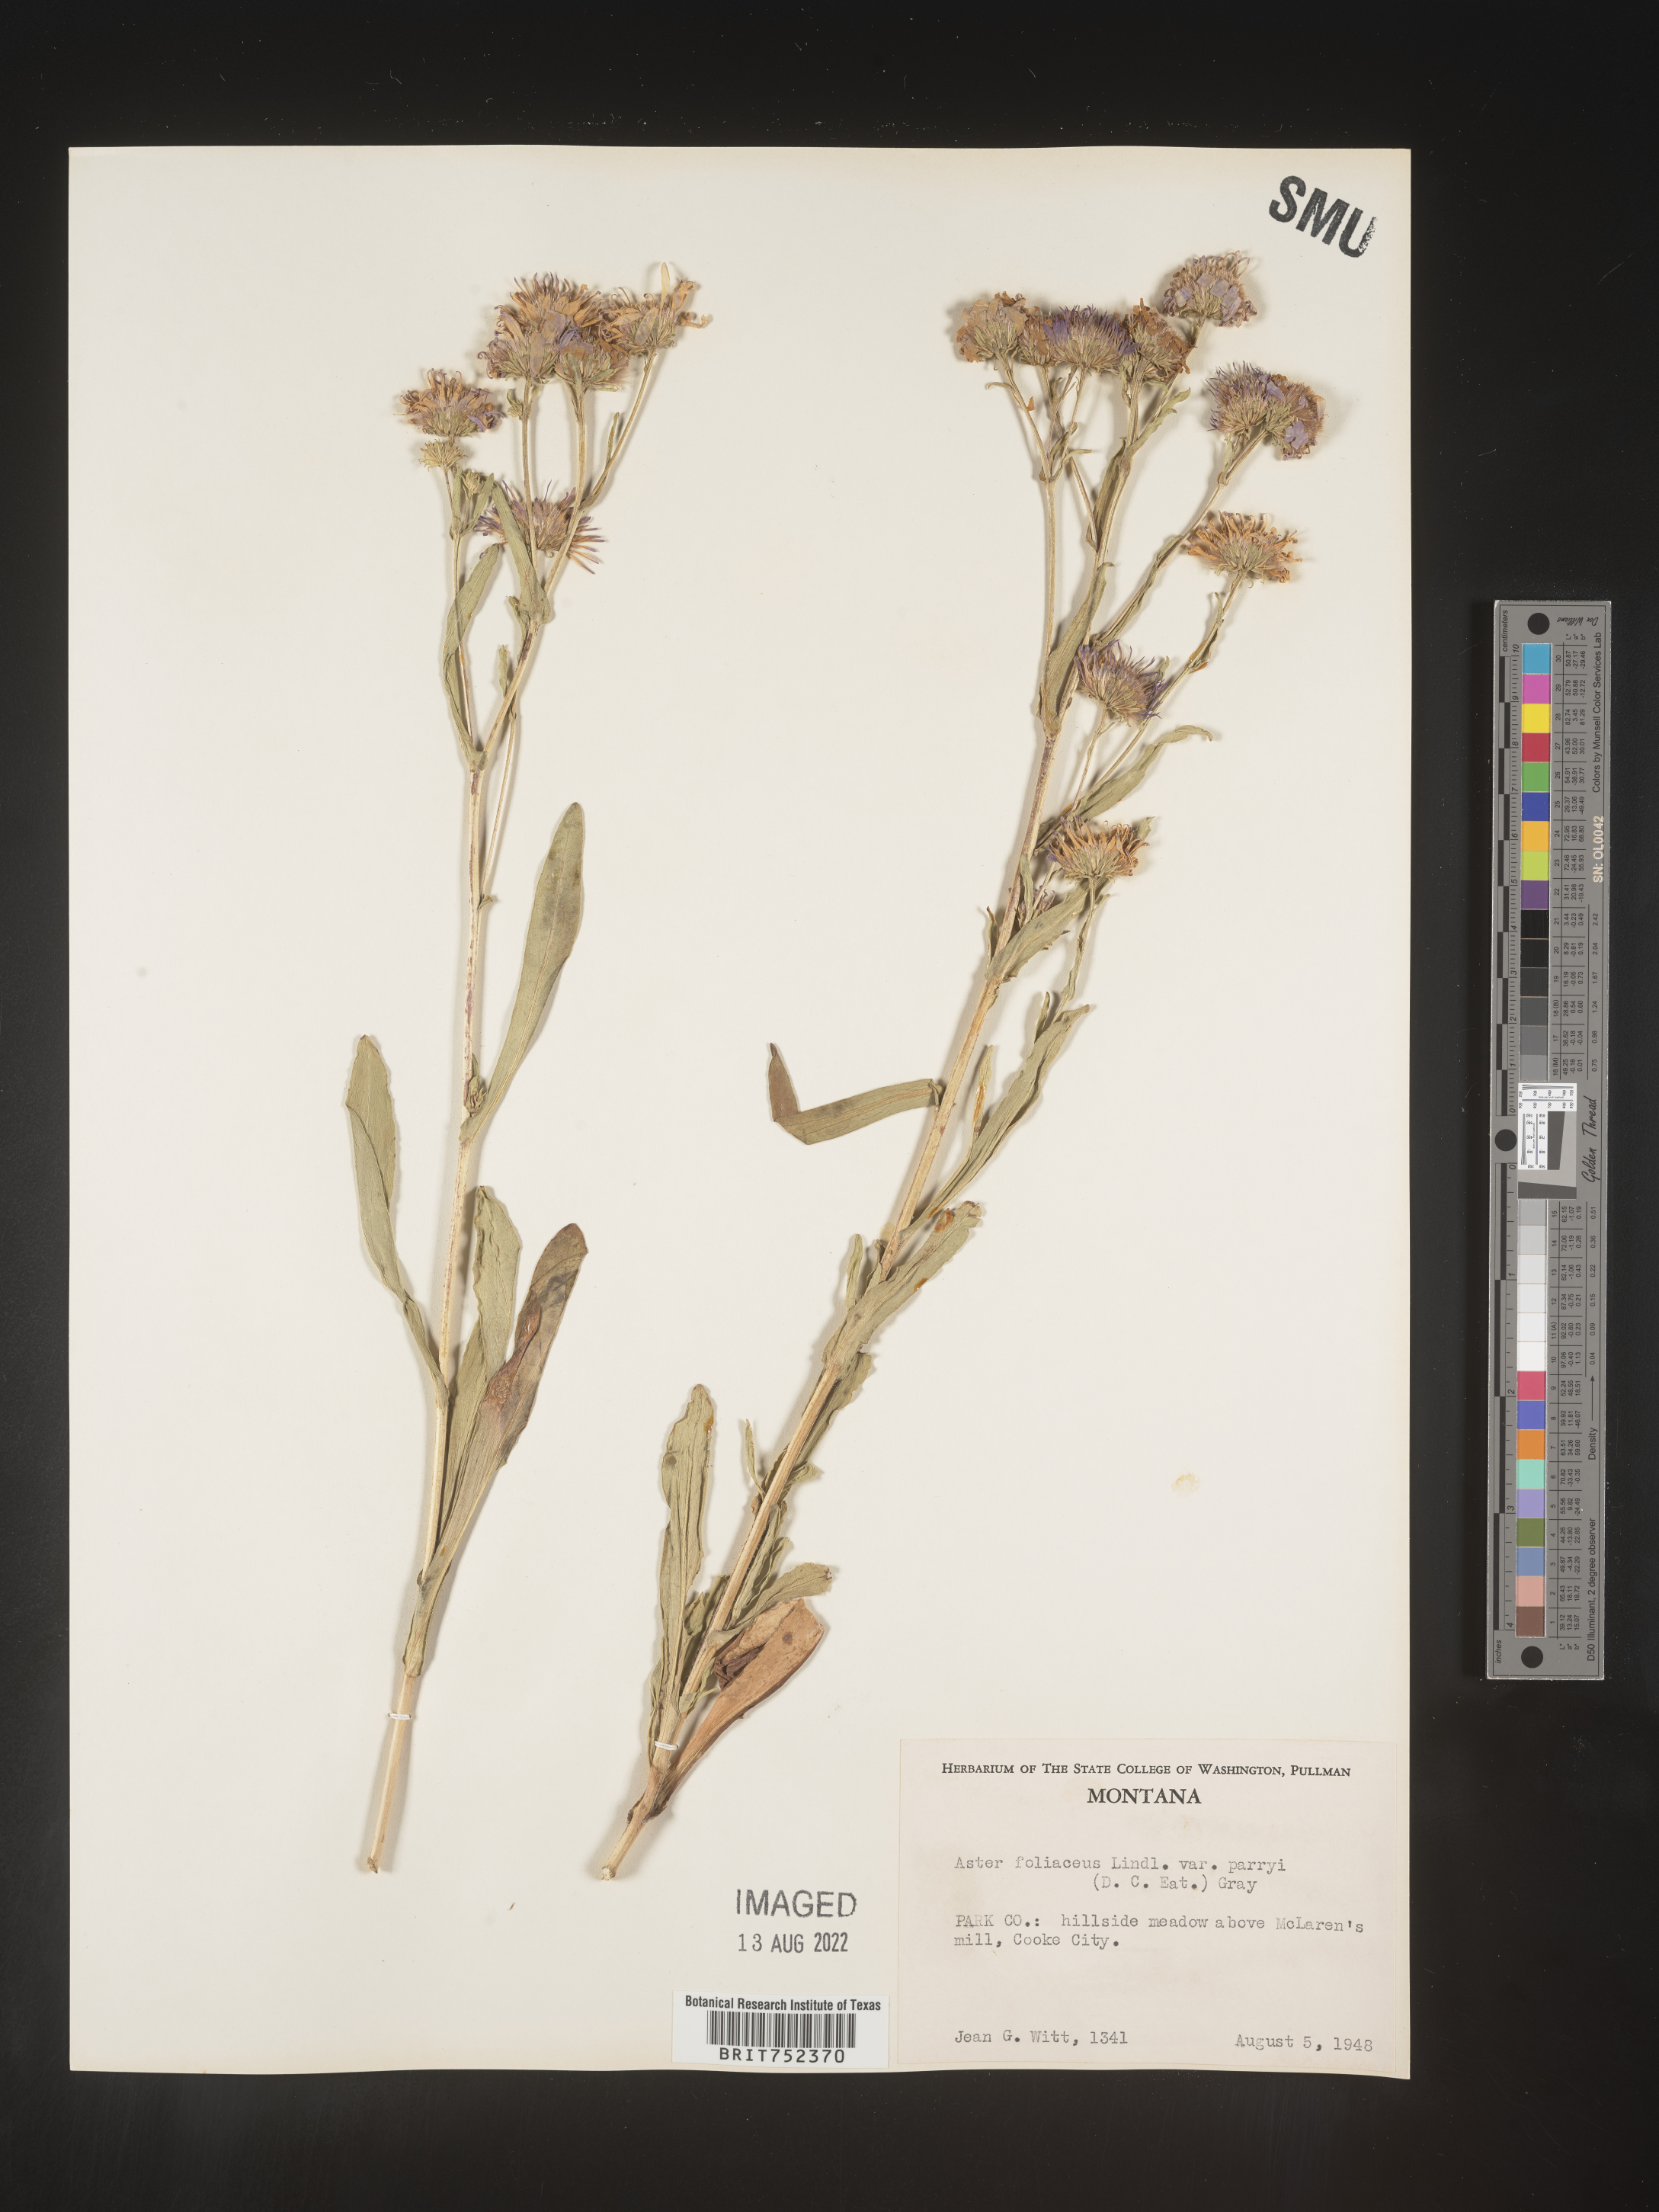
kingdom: Plantae
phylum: Tracheophyta
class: Magnoliopsida
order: Asterales
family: Asteraceae
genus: Symphyotrichum
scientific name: Symphyotrichum foliaceum
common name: Leafy aster
